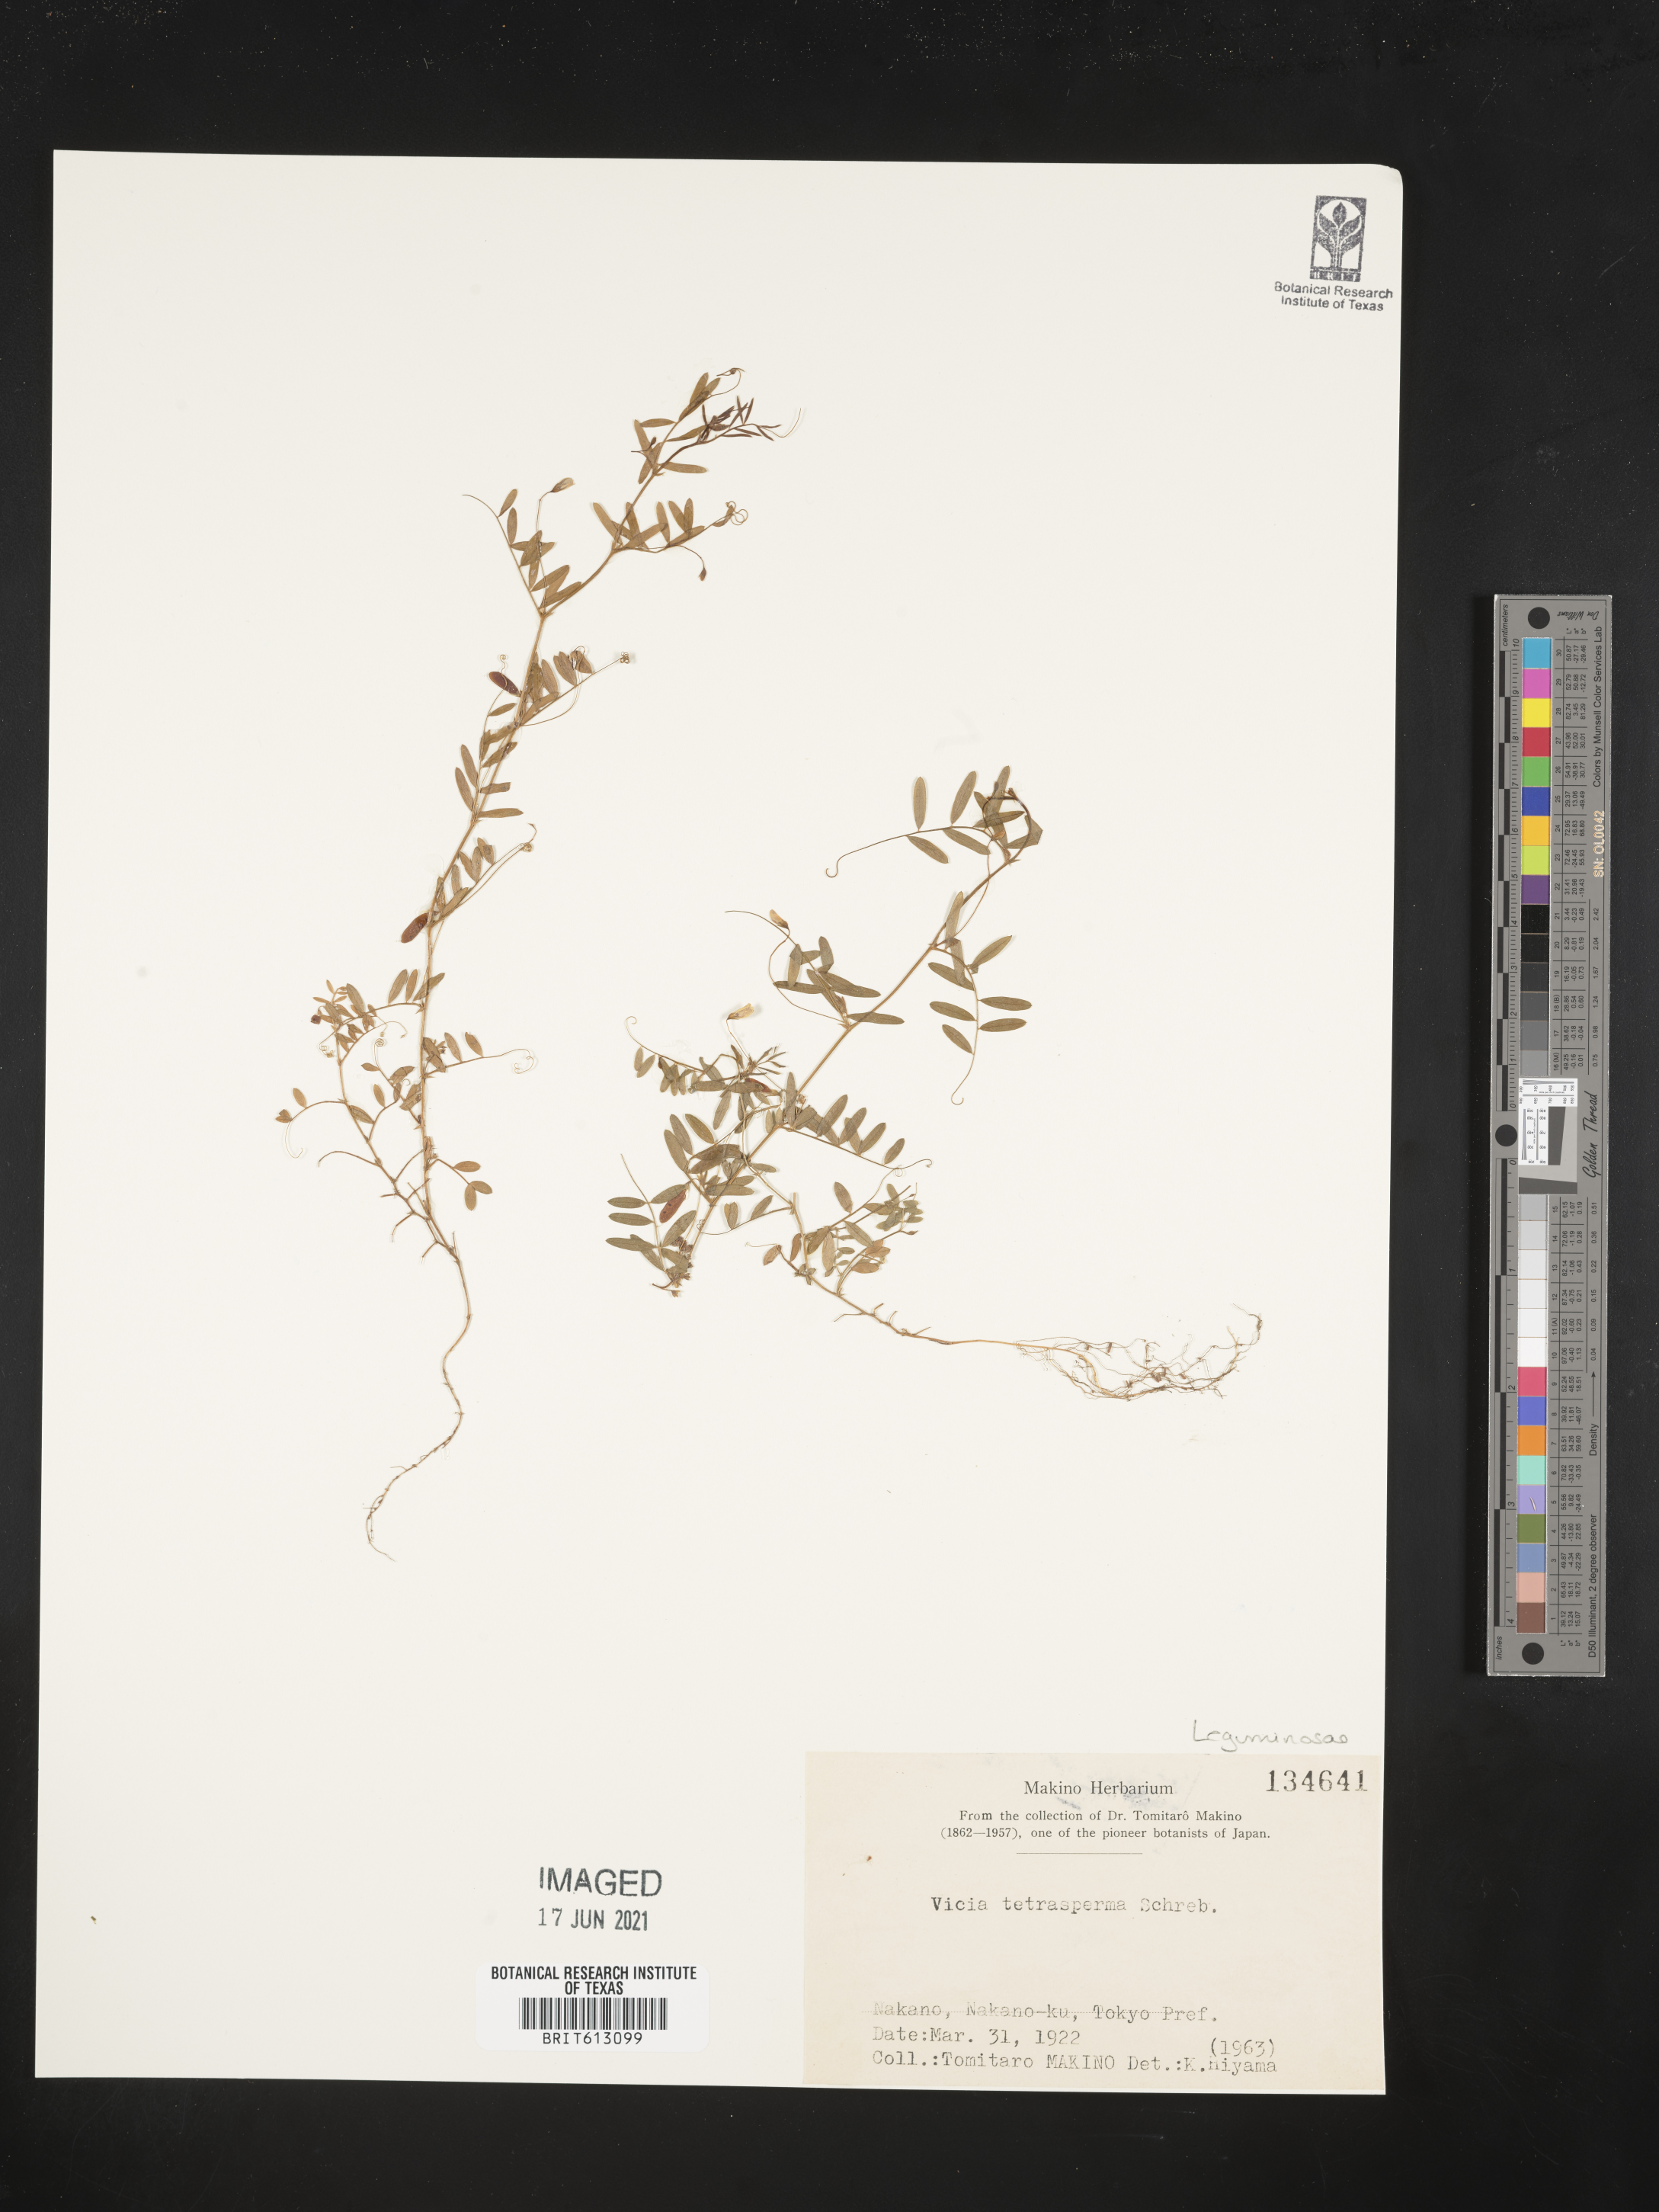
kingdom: Plantae
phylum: Tracheophyta
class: Magnoliopsida
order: Fabales
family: Fabaceae
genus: Vicia
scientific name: Vicia tetrasperma
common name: Smooth tare
